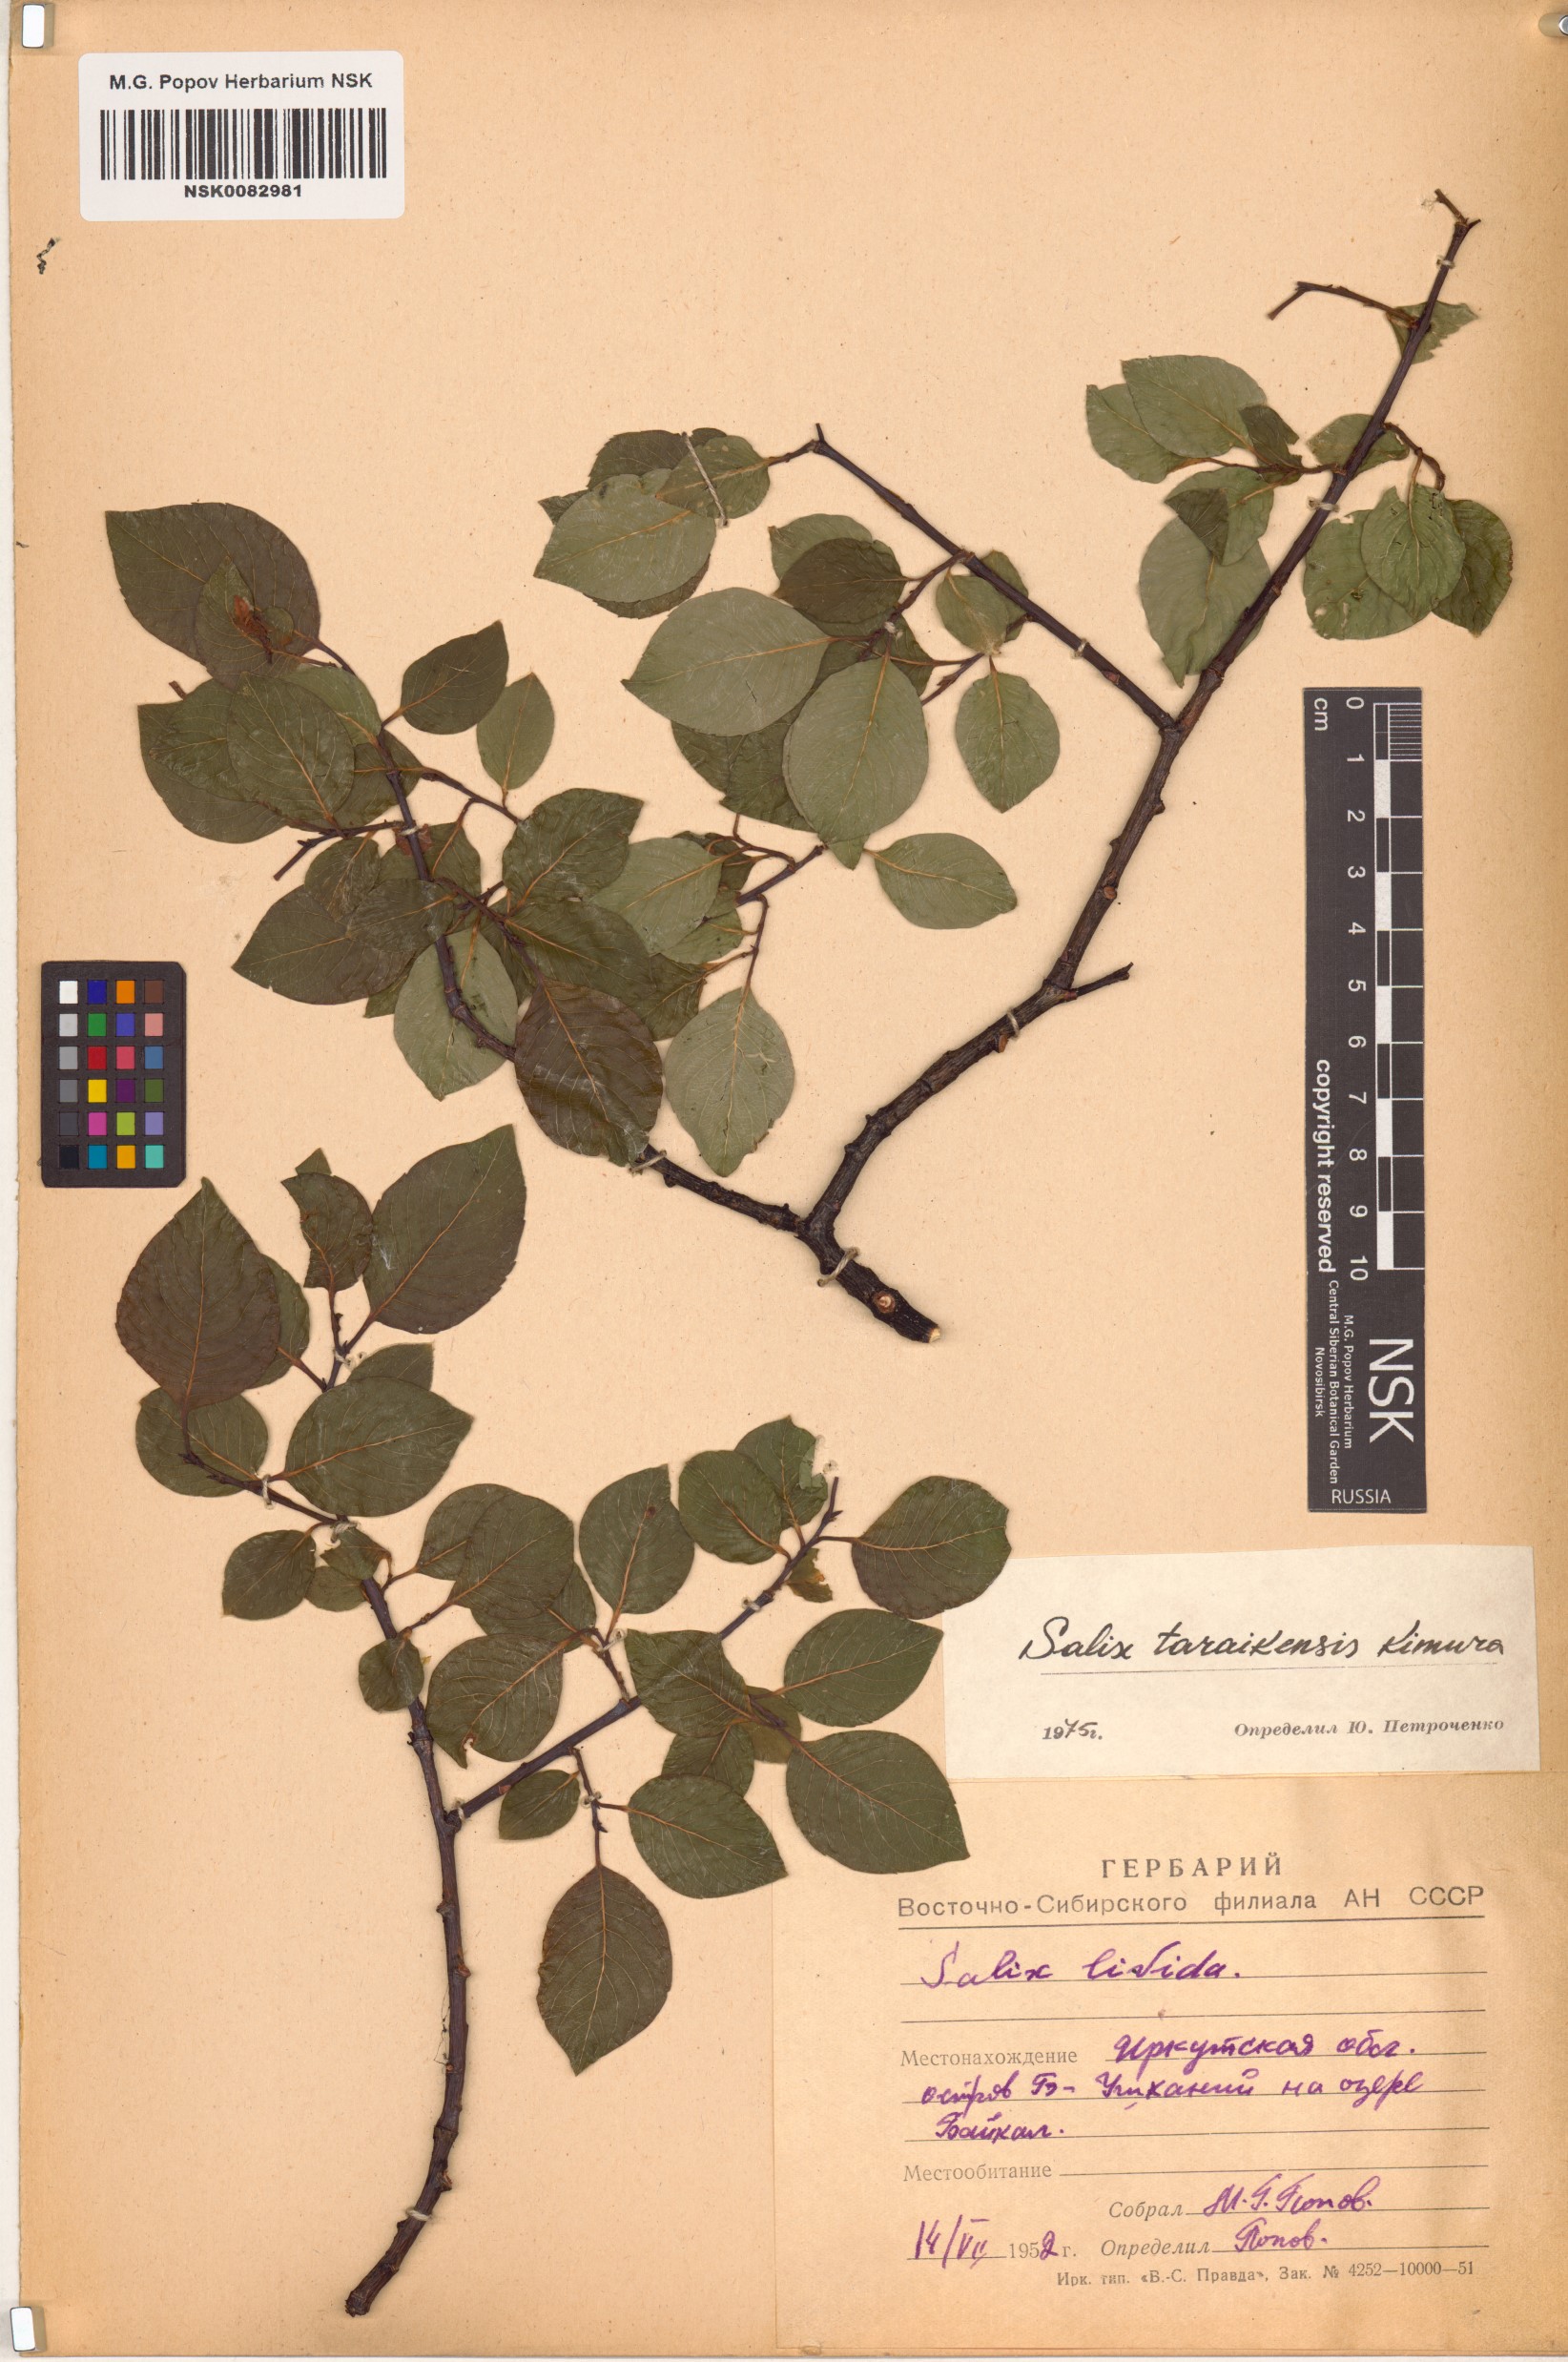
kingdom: Plantae
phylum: Tracheophyta
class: Magnoliopsida
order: Malpighiales
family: Salicaceae
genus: Salix
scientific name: Salix taraikensis
